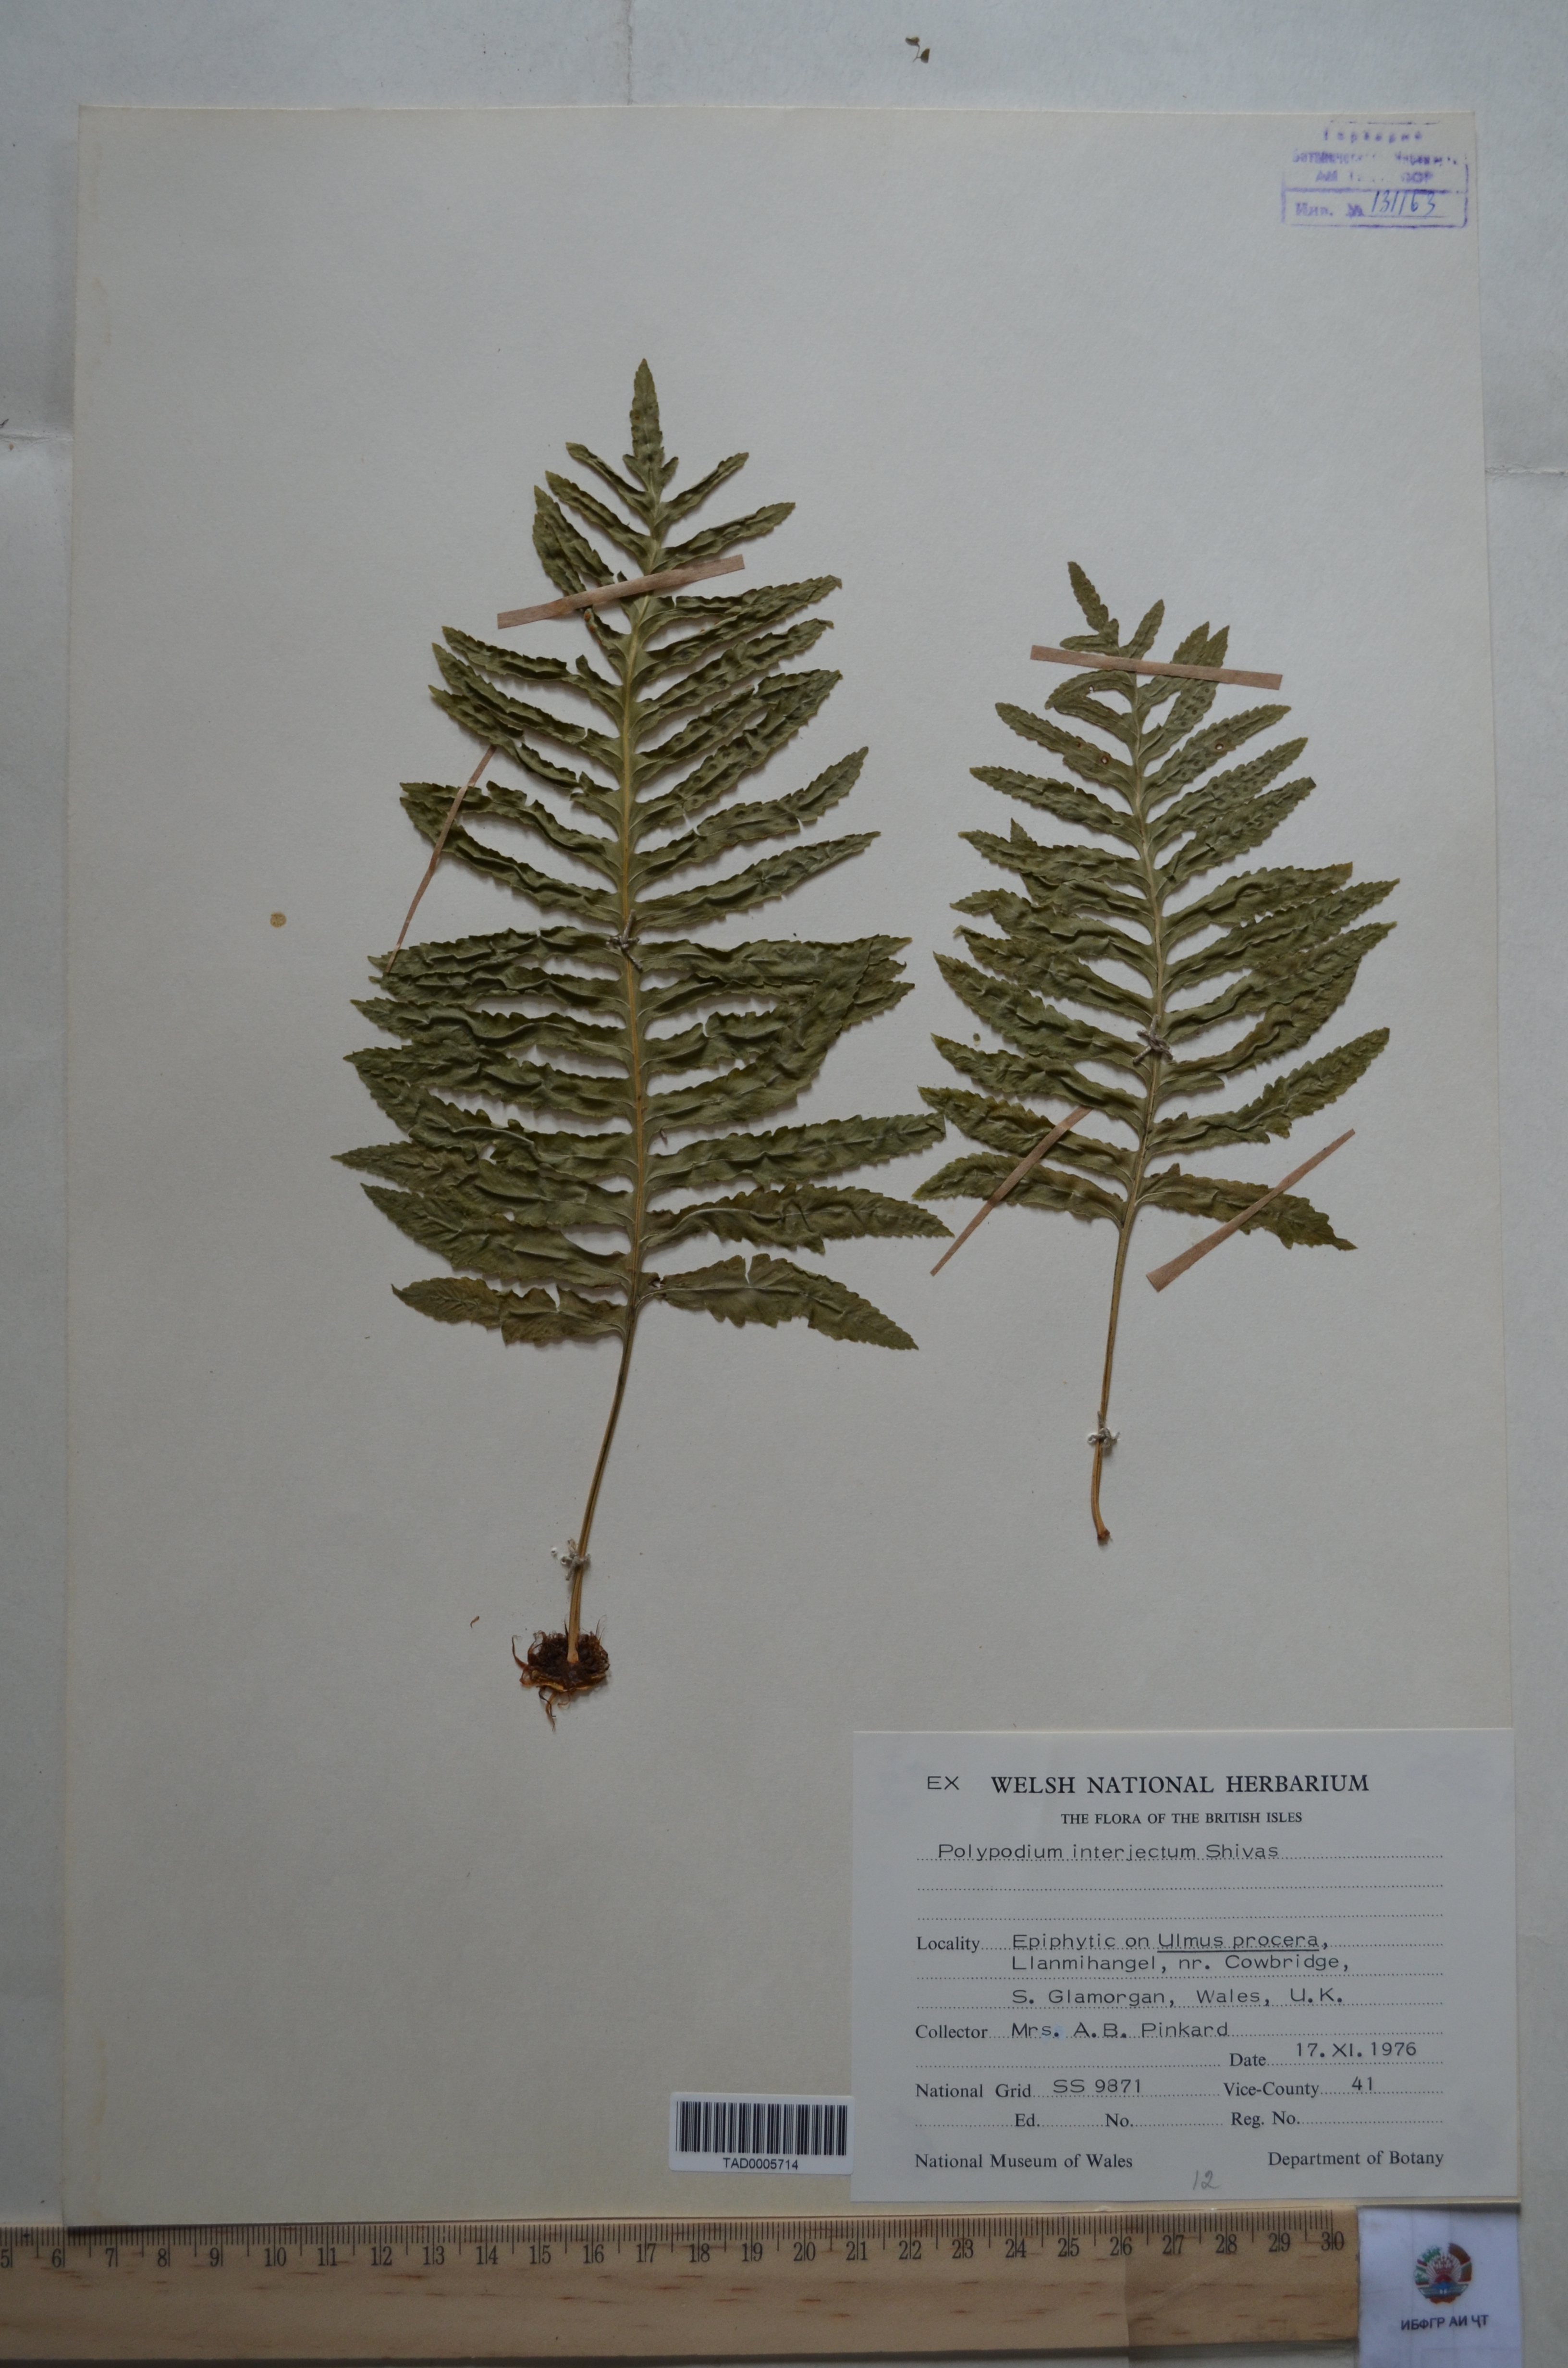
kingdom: Plantae
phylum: Tracheophyta
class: Polypodiopsida
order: Polypodiales
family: Polypodiaceae
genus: Polypodium
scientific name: Polypodium interjectum
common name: Intermediate polypody
